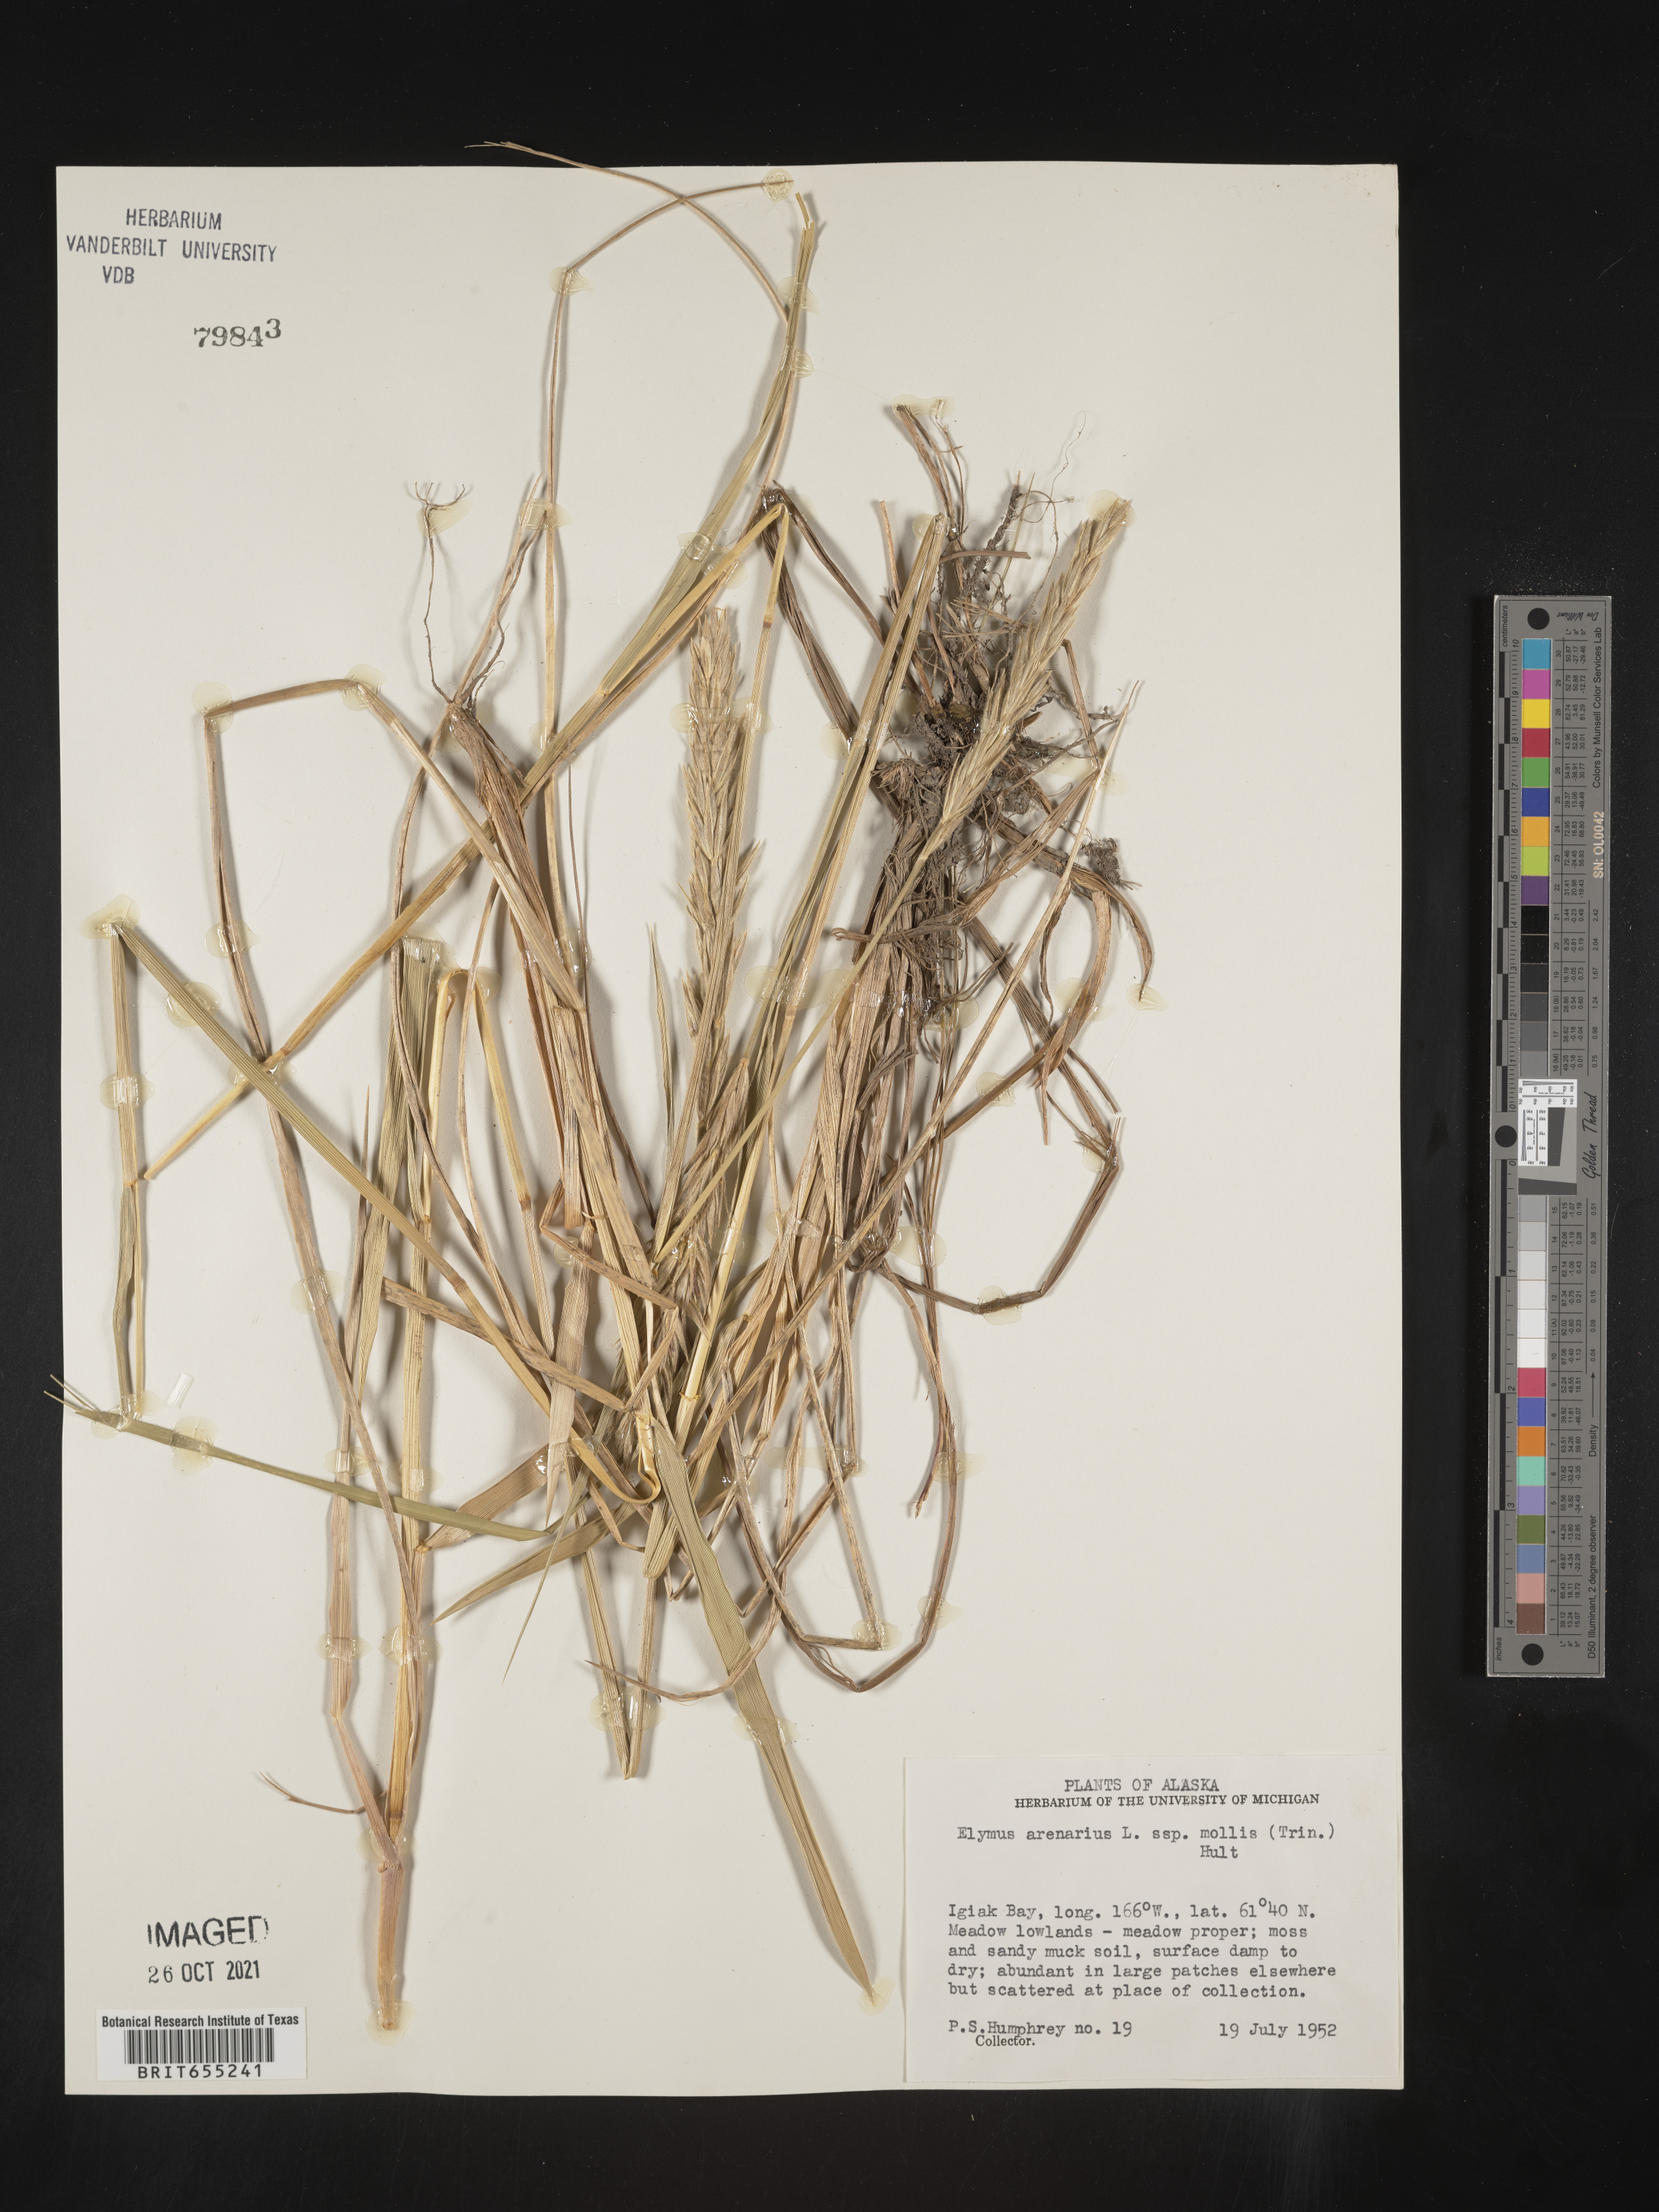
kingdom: Plantae
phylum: Tracheophyta
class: Liliopsida
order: Poales
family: Poaceae
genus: Elymus
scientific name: Elymus
